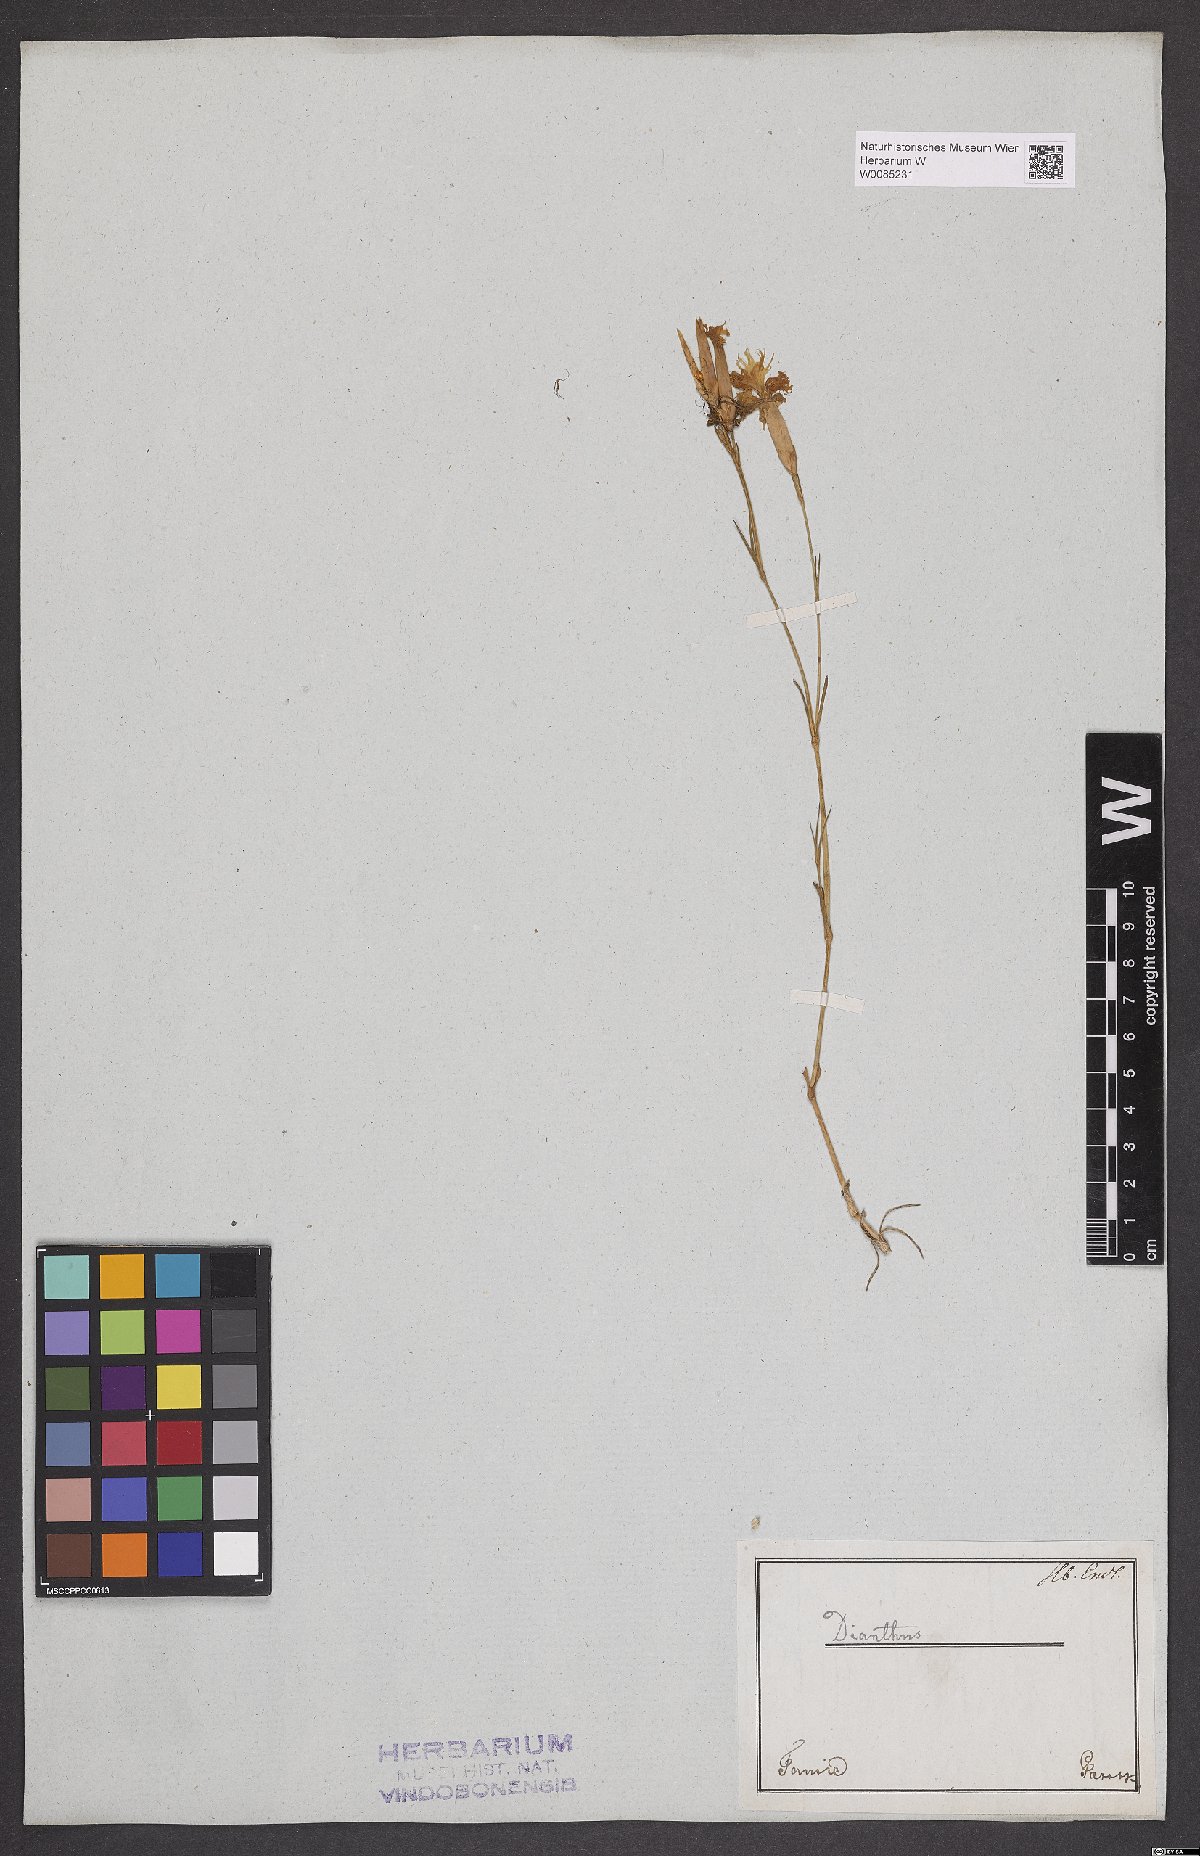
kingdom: Plantae
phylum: Tracheophyta
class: Magnoliopsida
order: Caryophyllales
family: Caryophyllaceae
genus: Dianthus
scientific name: Dianthus petraeus
